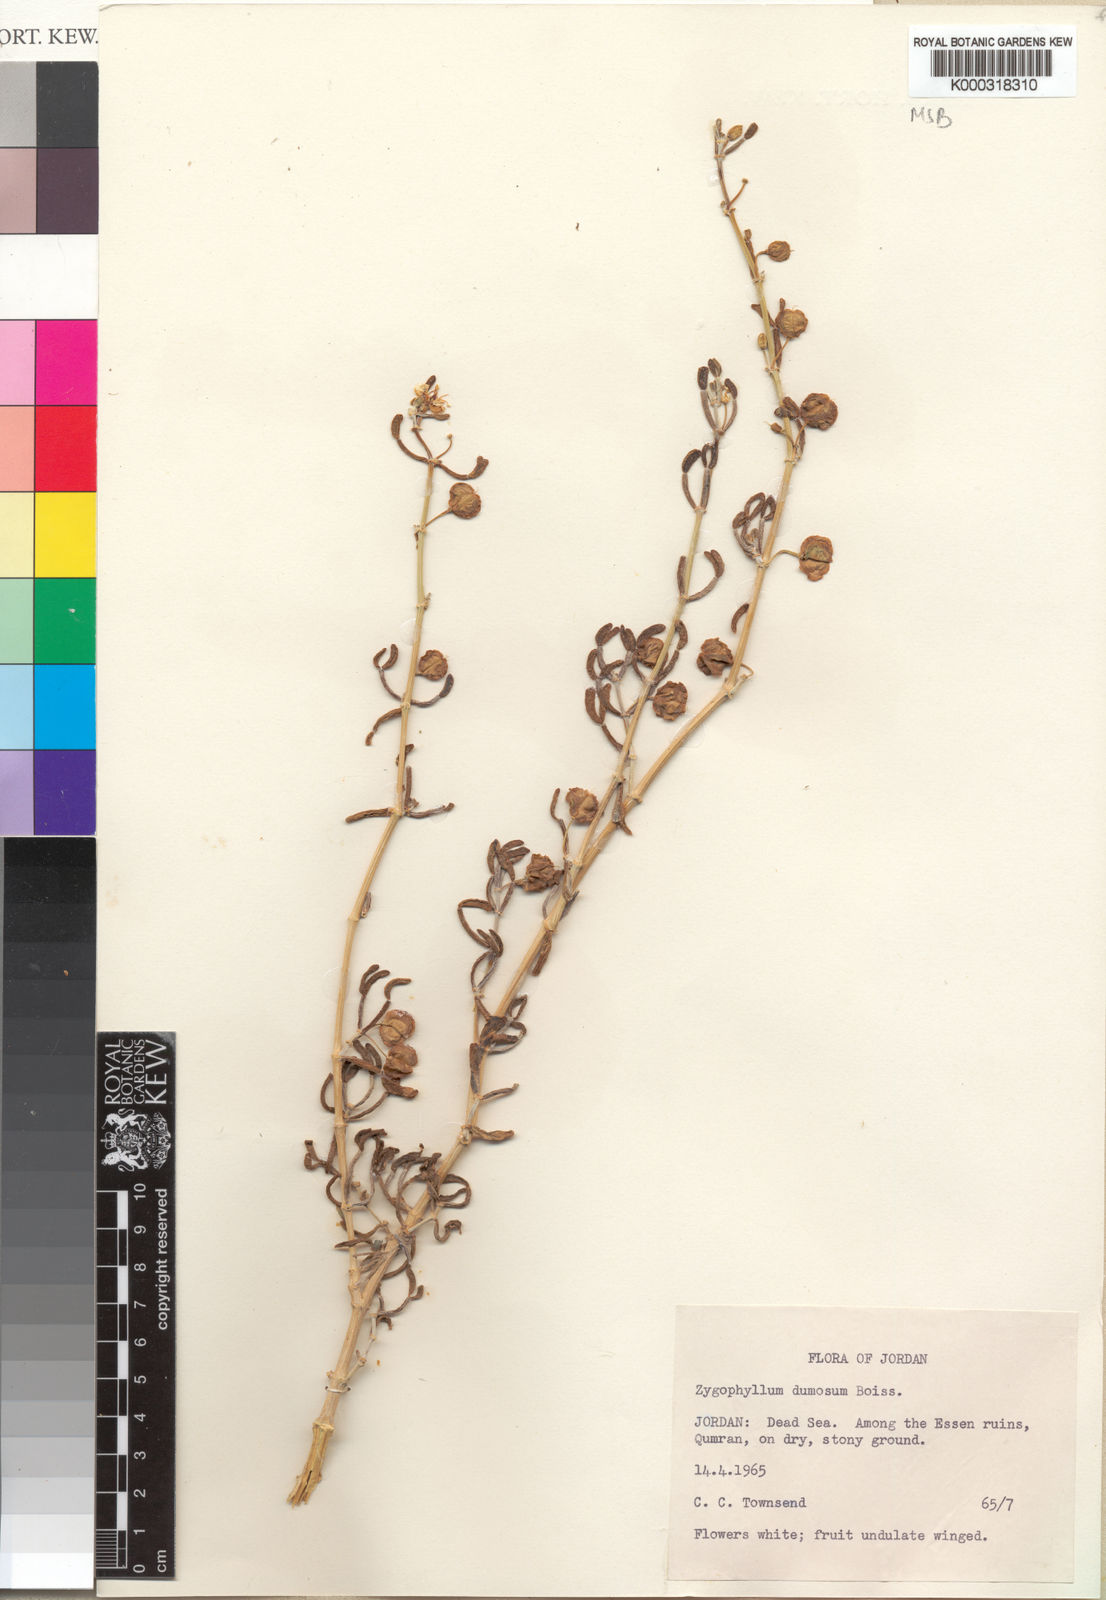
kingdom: Plantae
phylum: Tracheophyta
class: Magnoliopsida
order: Zygophyllales
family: Zygophyllaceae
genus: Tetraena
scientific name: Tetraena dumosa
